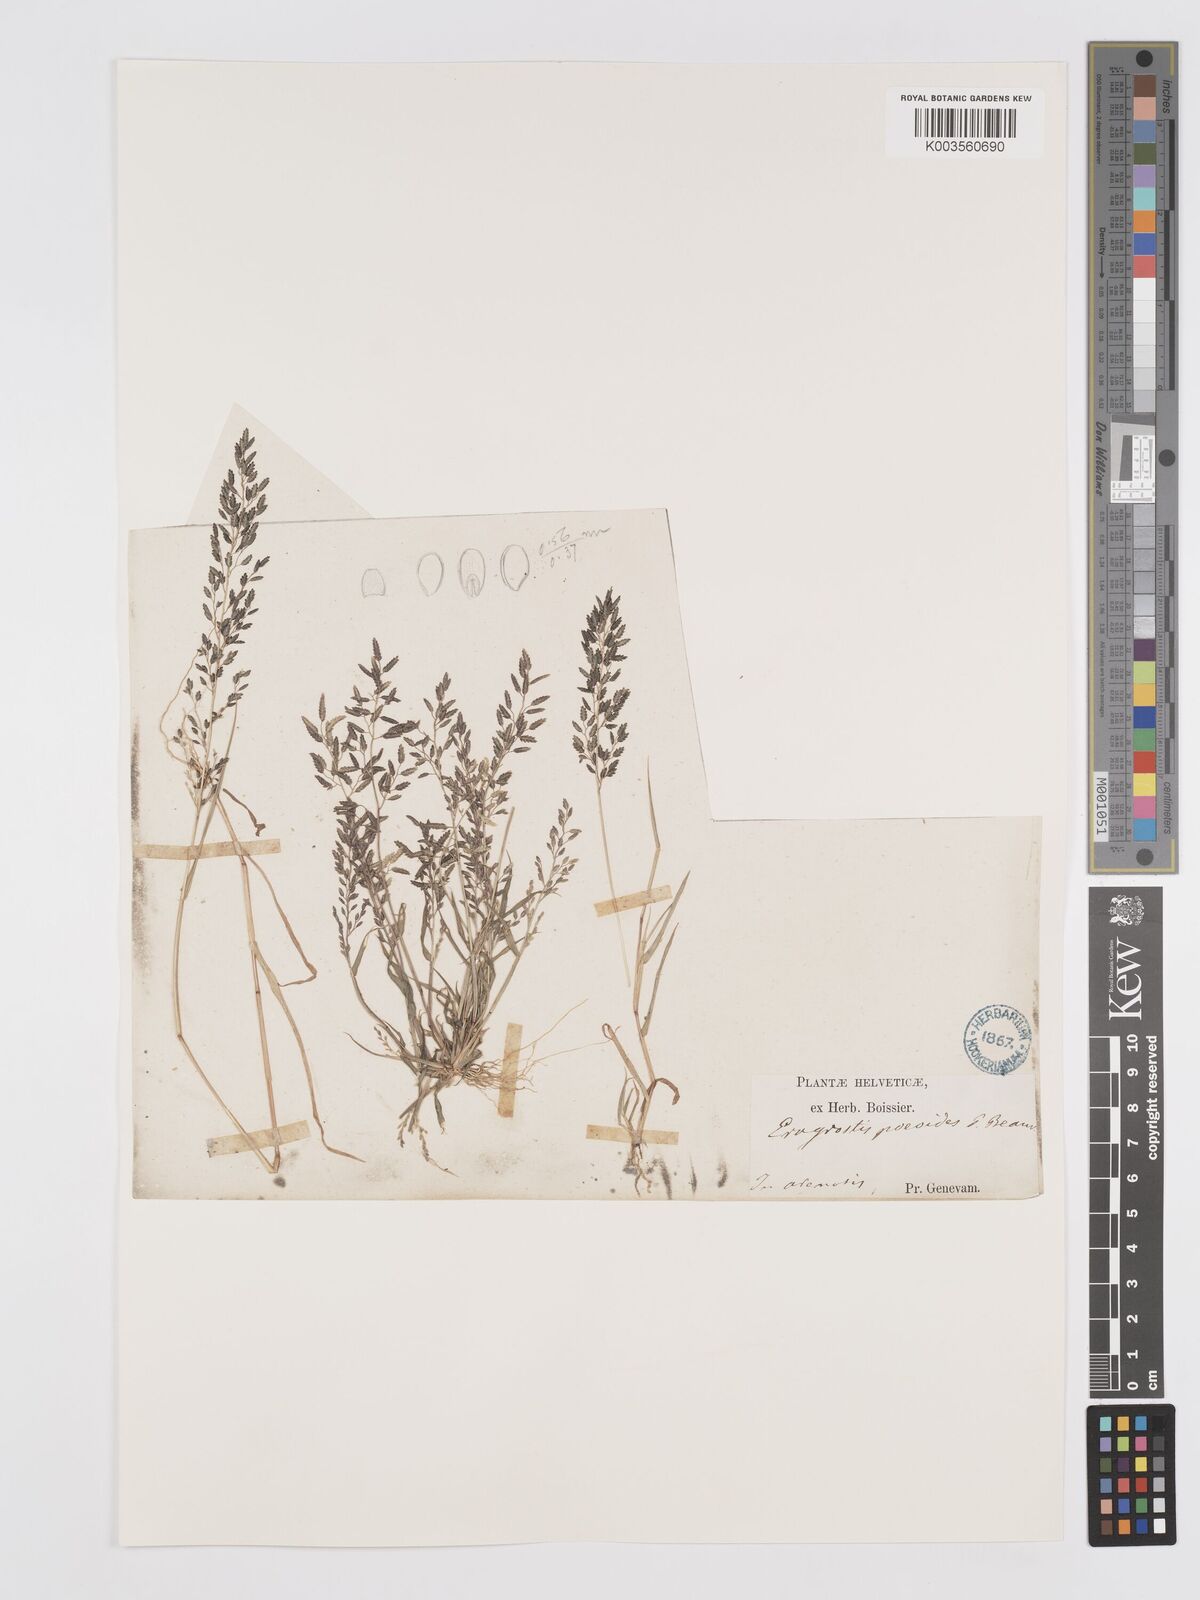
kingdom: Plantae
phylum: Tracheophyta
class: Liliopsida
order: Poales
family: Poaceae
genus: Eragrostis
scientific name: Eragrostis minor
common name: Small love-grass
